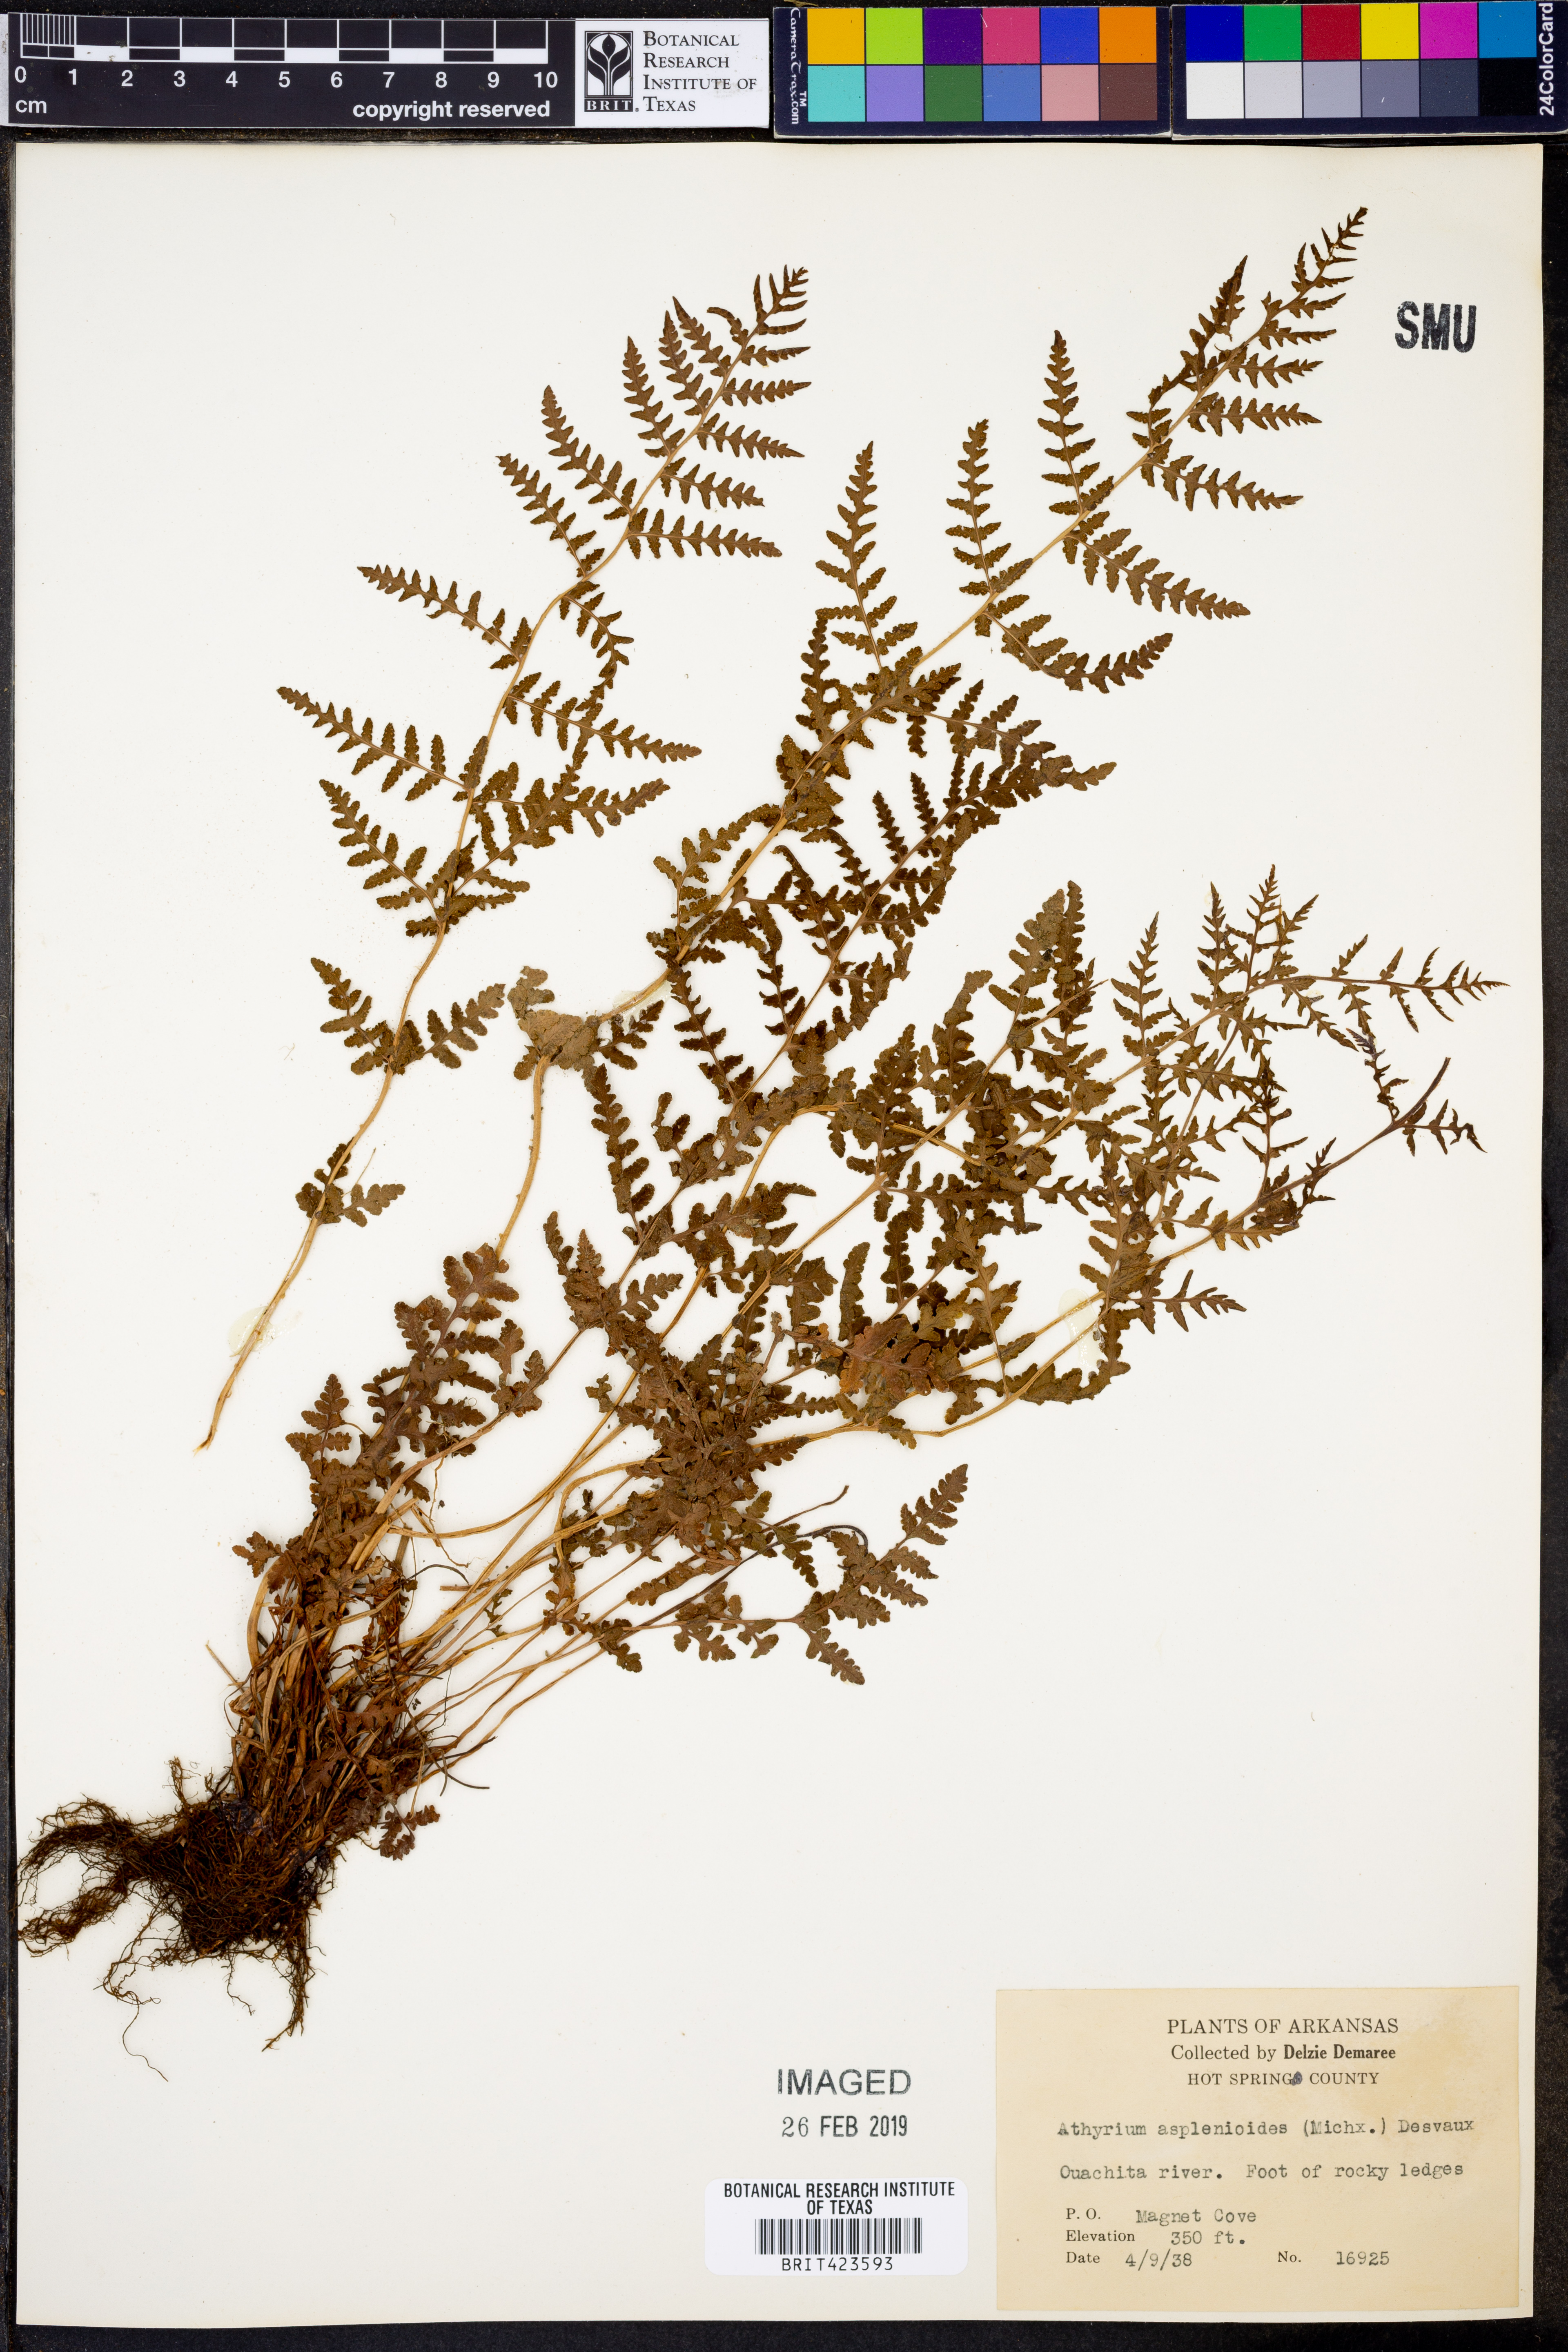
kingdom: Plantae
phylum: Tracheophyta
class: Polypodiopsida
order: Polypodiales
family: Athyriaceae
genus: Athyrium
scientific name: Athyrium asplenioides
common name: Southern lady fern
